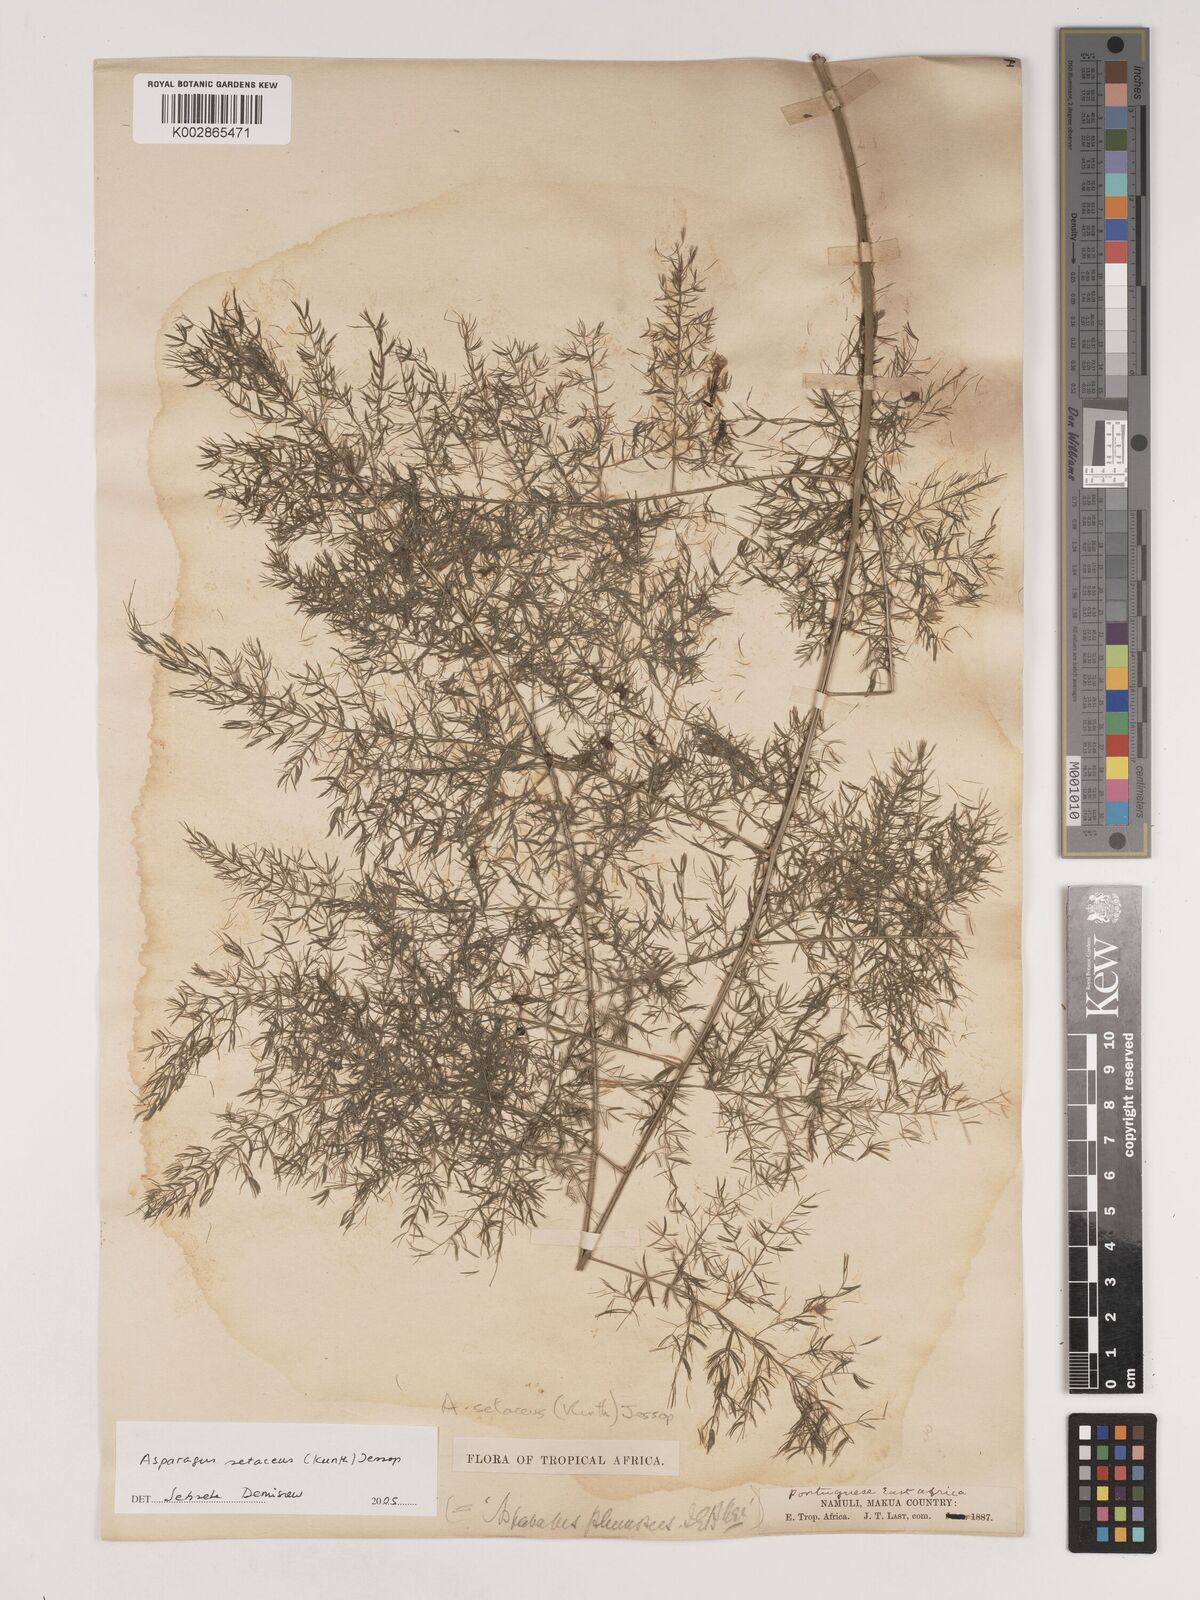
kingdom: Plantae
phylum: Tracheophyta
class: Liliopsida
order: Asparagales
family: Asparagaceae
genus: Asparagus
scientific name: Asparagus setaceus
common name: Common asparagus fern
